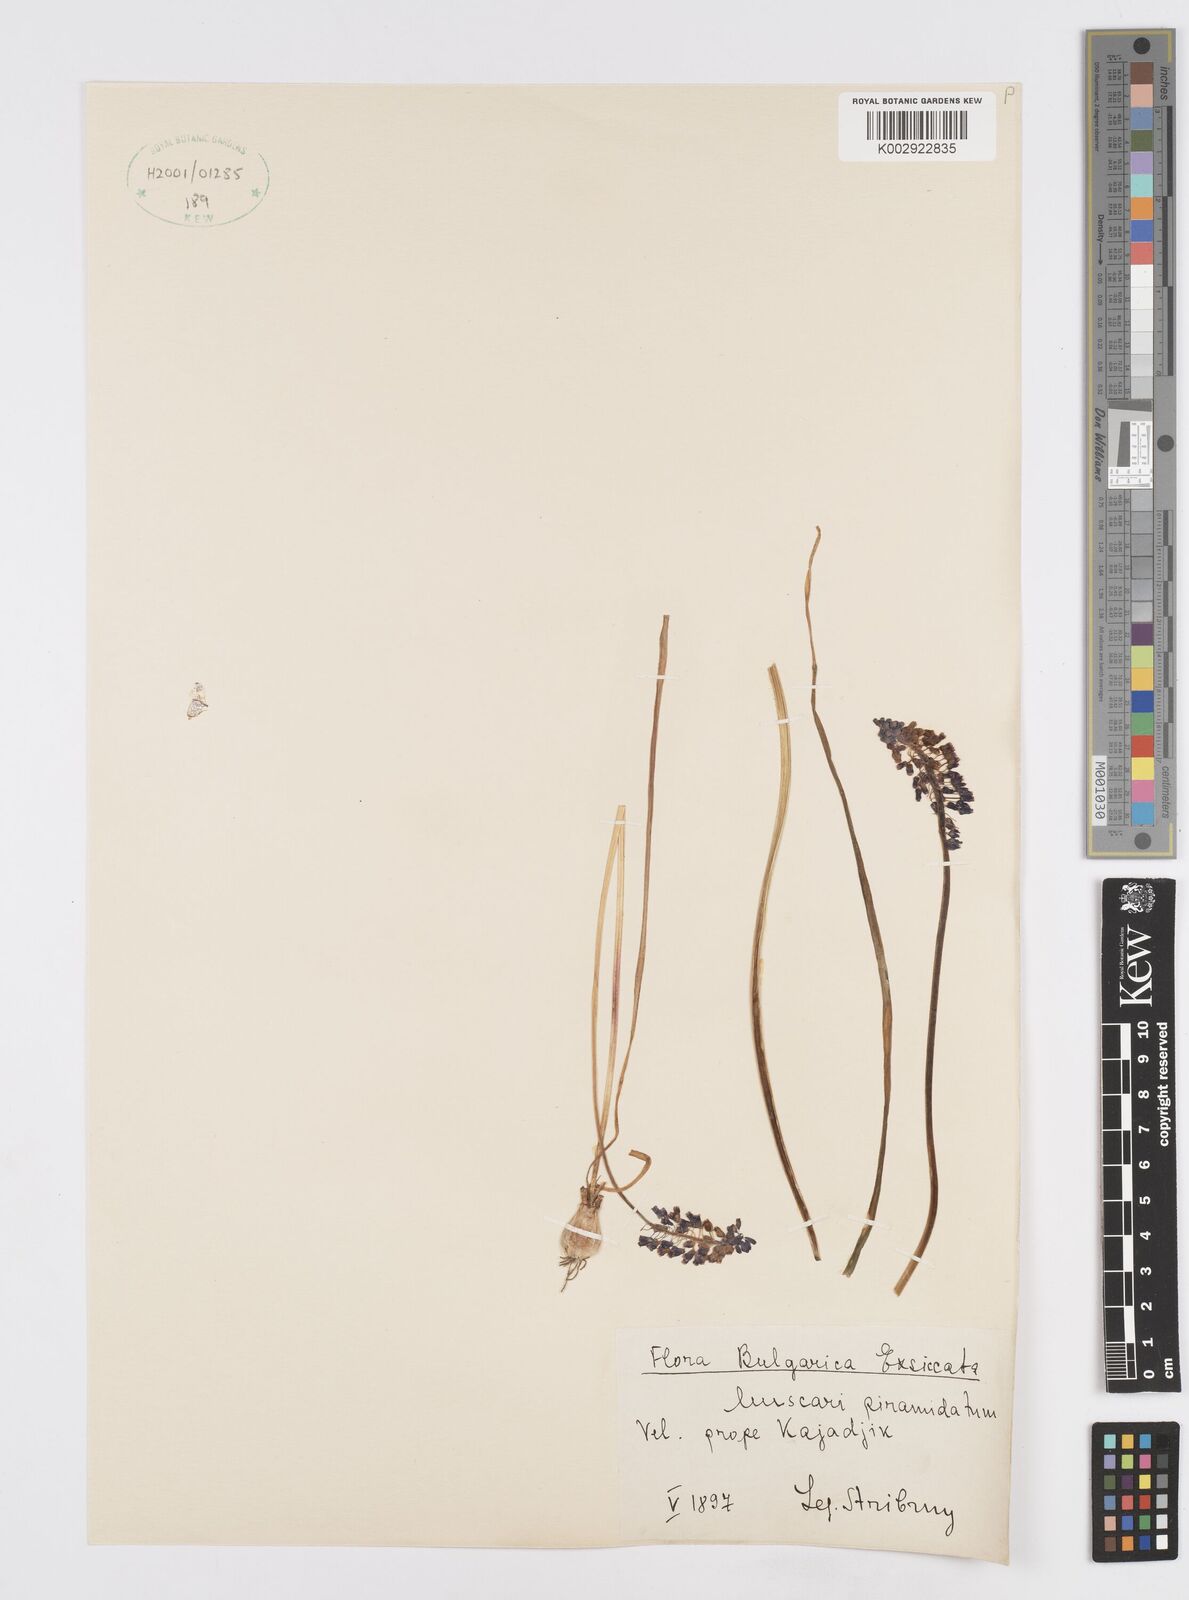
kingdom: Plantae
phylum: Tracheophyta
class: Liliopsida
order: Asparagales
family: Asparagaceae
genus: Muscari
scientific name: Muscari
